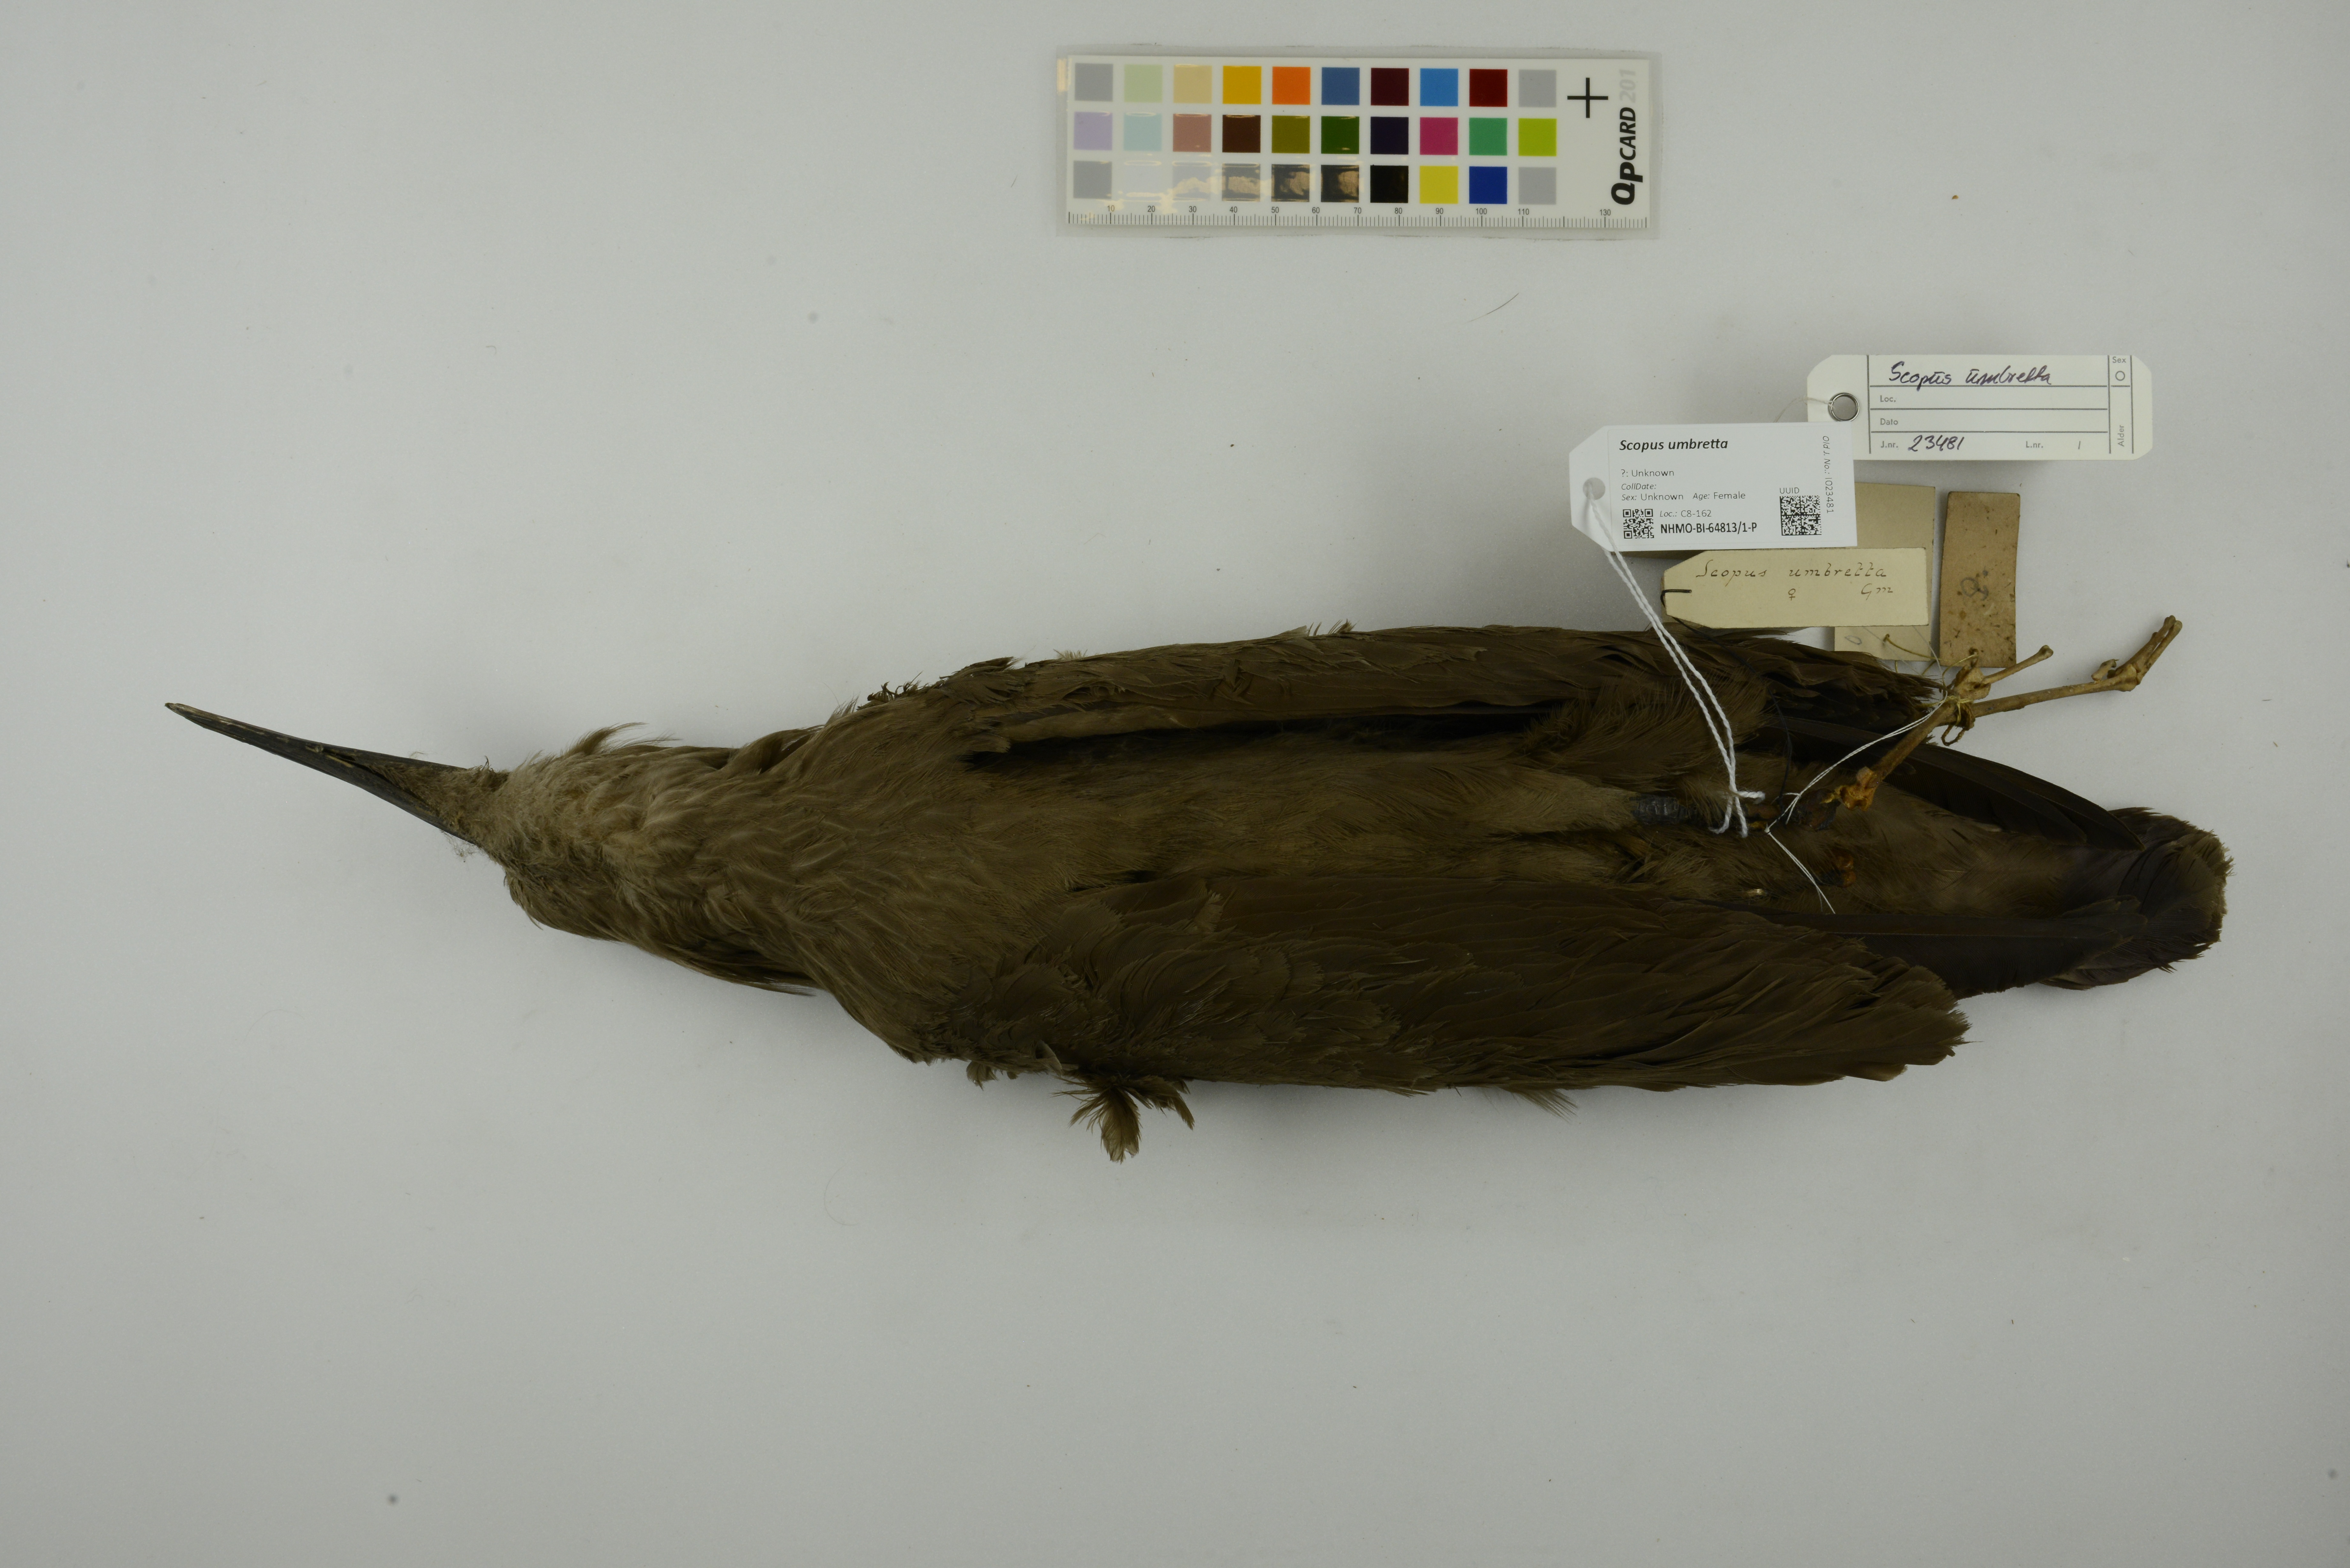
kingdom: Animalia
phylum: Chordata
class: Aves
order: Pelecaniformes
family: Scopidae
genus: Scopus
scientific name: Scopus umbretta
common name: Hamerkop
